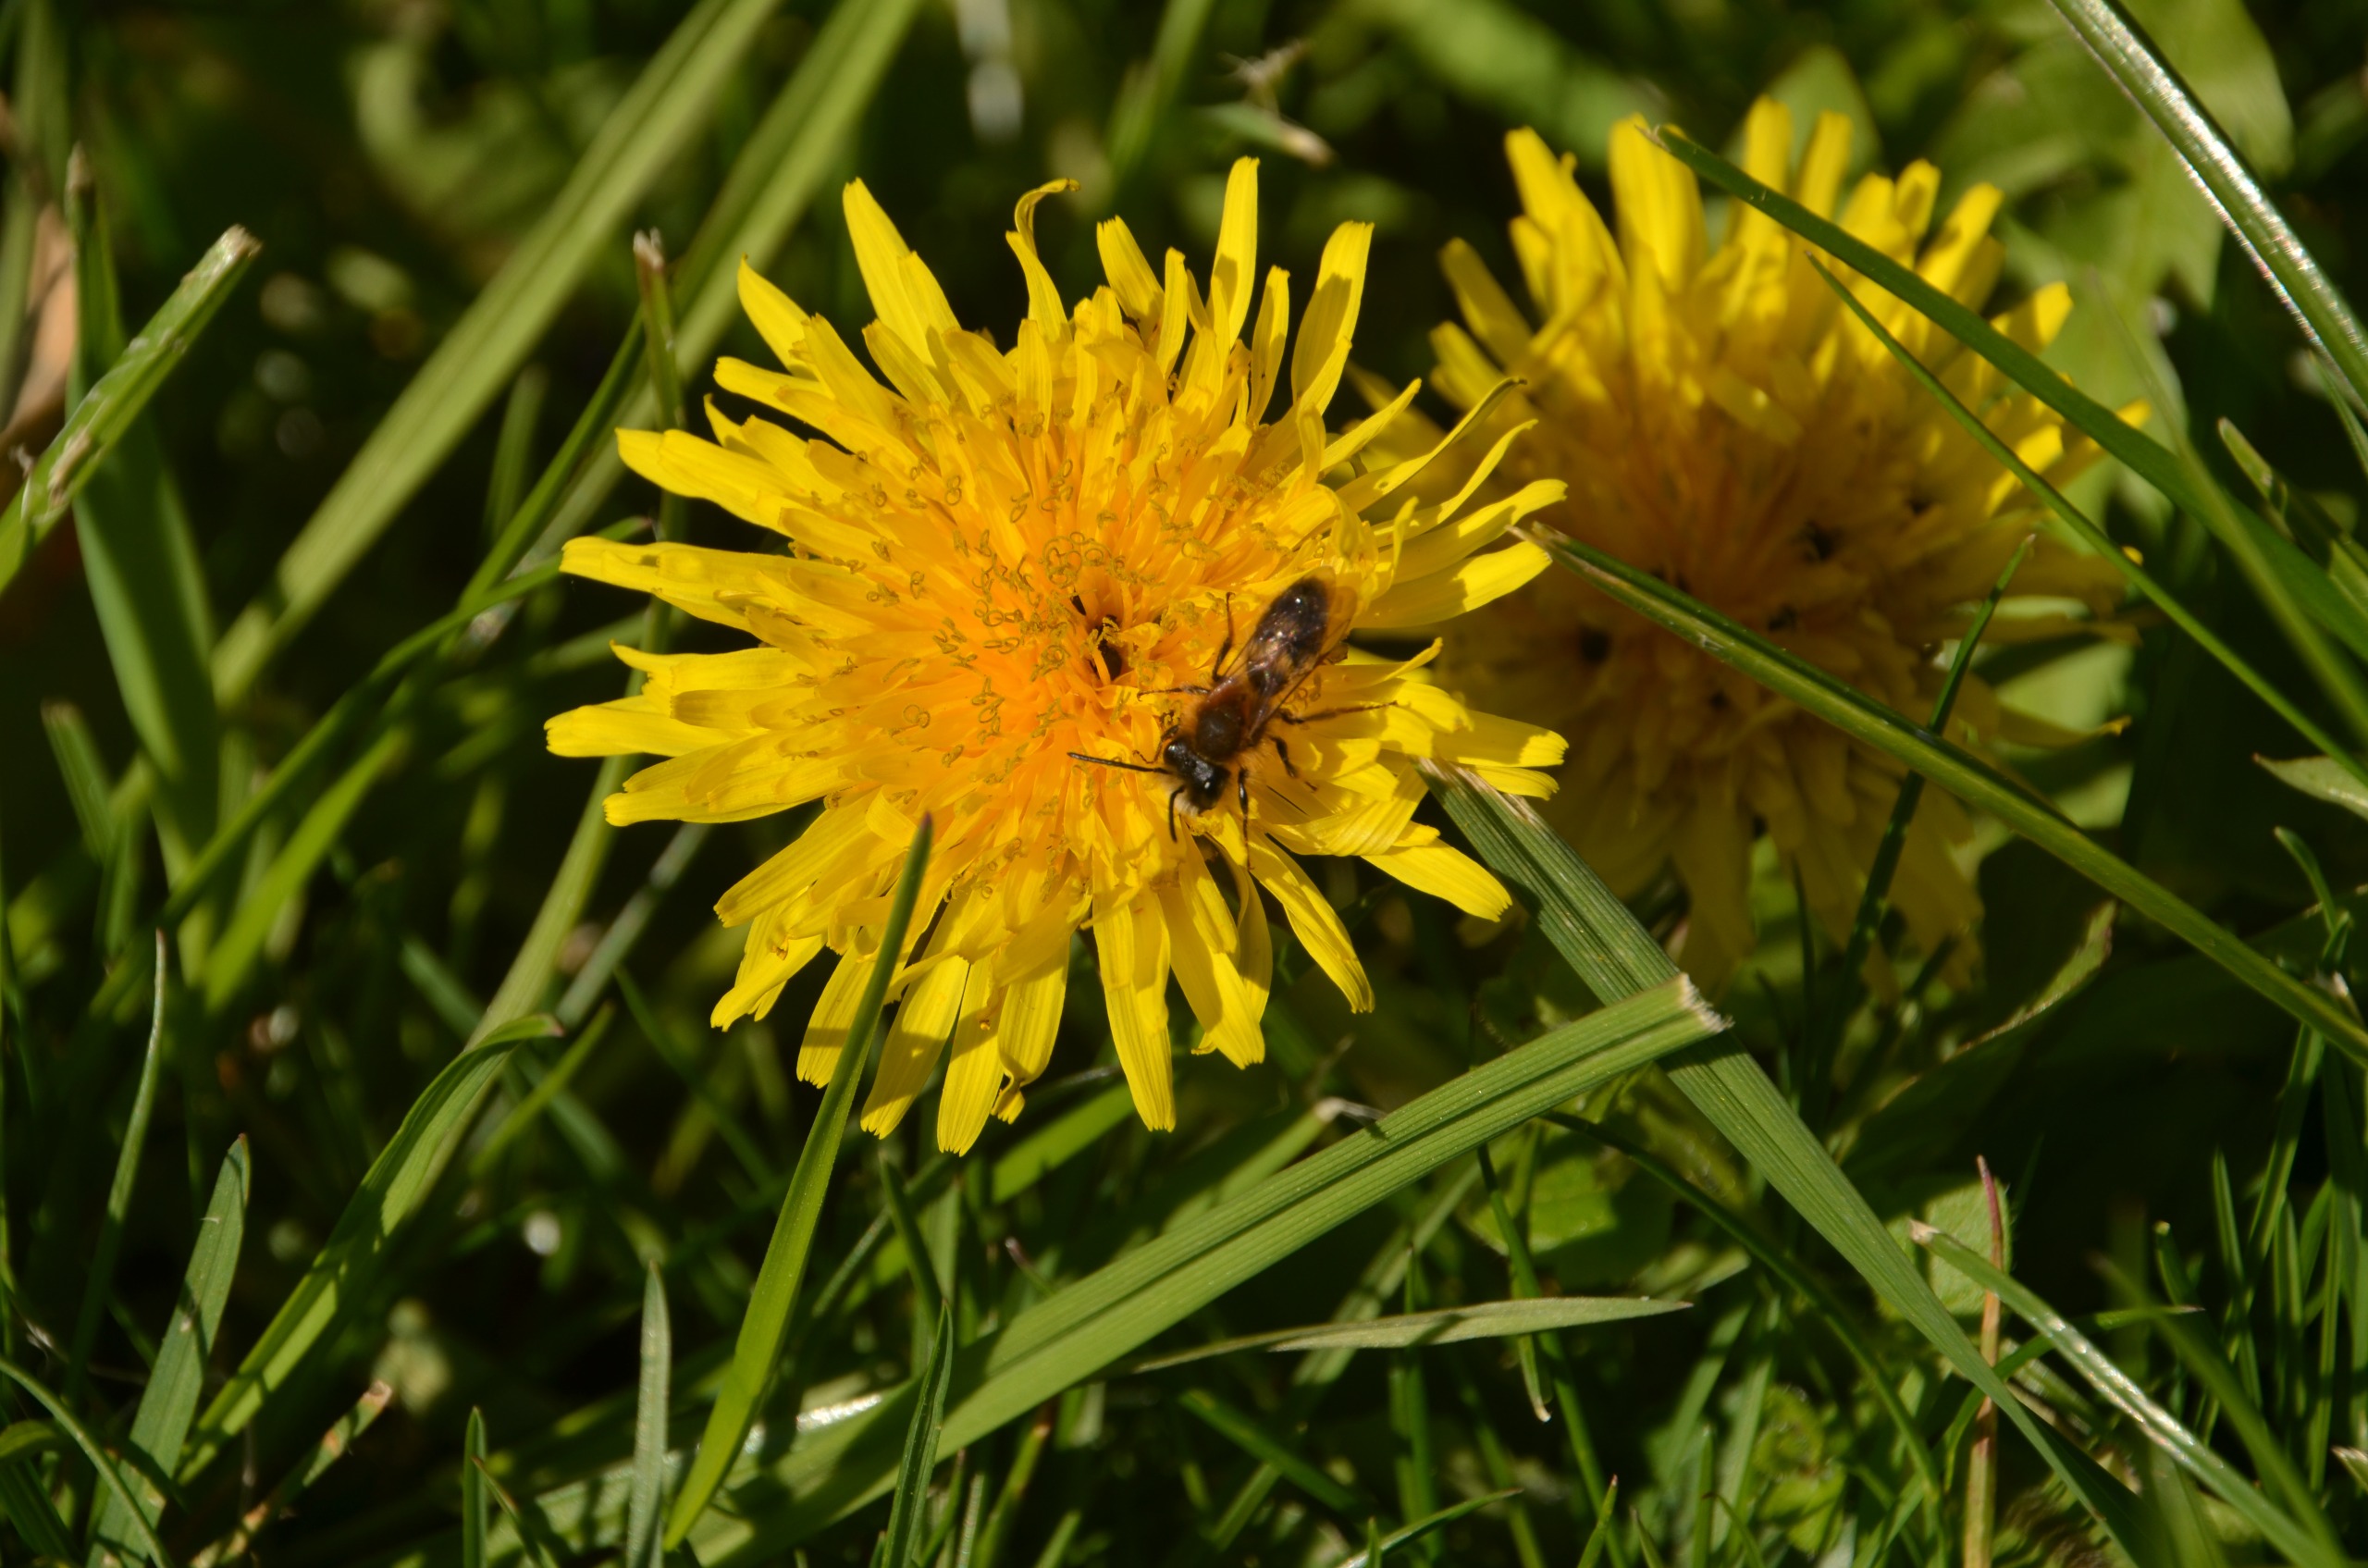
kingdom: Plantae
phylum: Tracheophyta
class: Magnoliopsida
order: Asterales
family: Asteraceae
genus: Taraxacum
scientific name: Taraxacum
